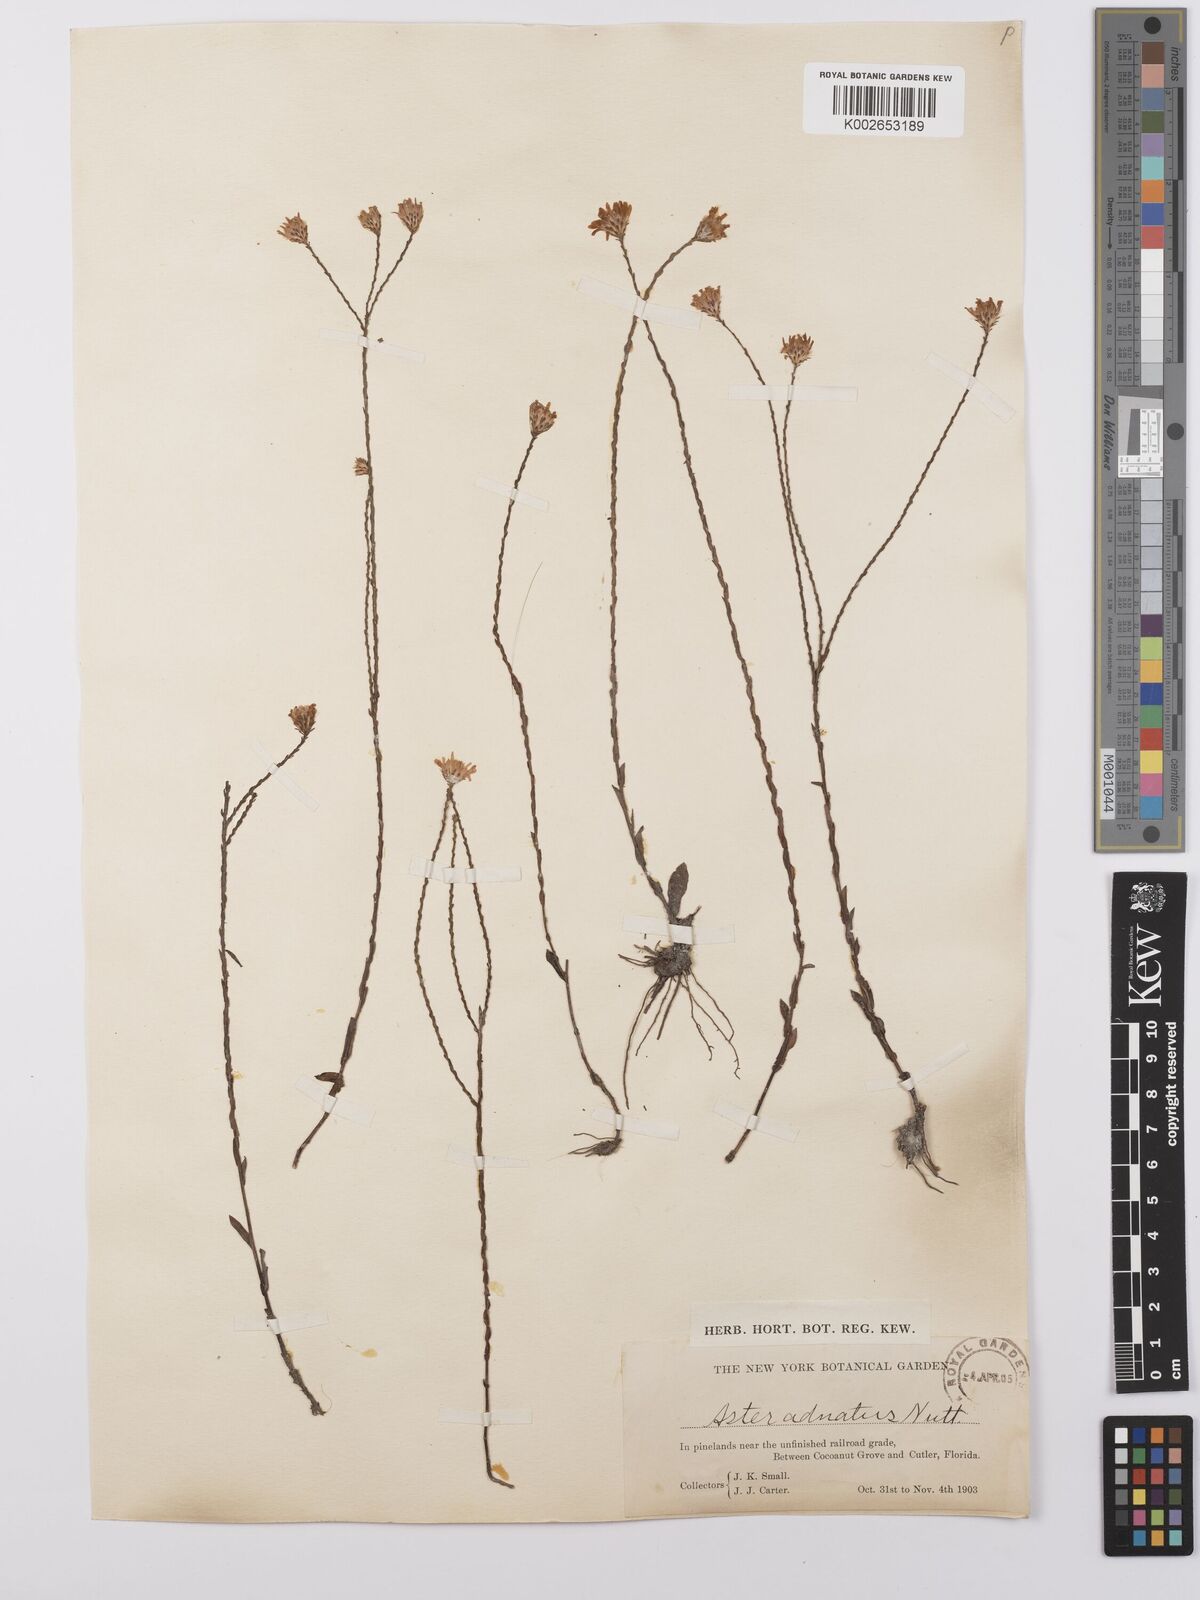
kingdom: Plantae
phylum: Tracheophyta
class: Magnoliopsida
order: Asterales
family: Asteraceae
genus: Symphyotrichum
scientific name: Symphyotrichum adnatum
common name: Scale-leaf aster
